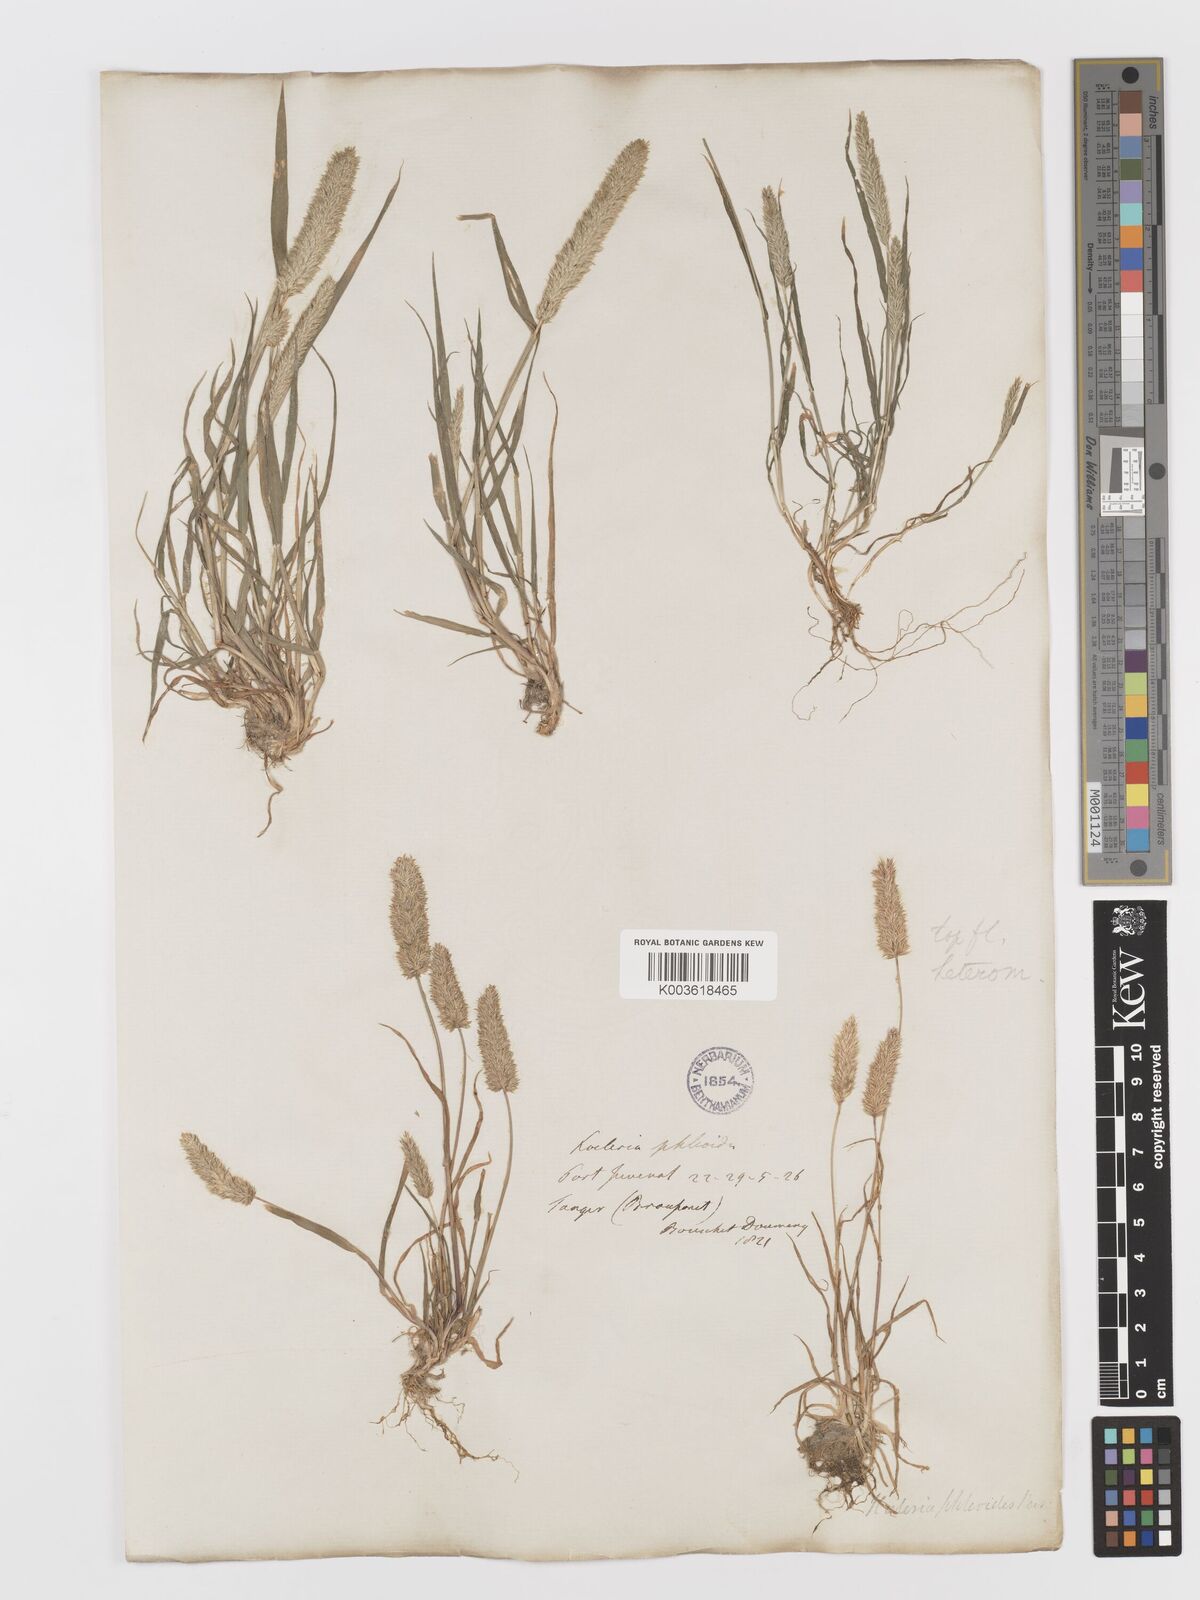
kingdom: Plantae
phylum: Tracheophyta
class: Liliopsida
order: Poales
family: Poaceae
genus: Rostraria
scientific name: Rostraria cristata
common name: Mediterranean hair-grass
